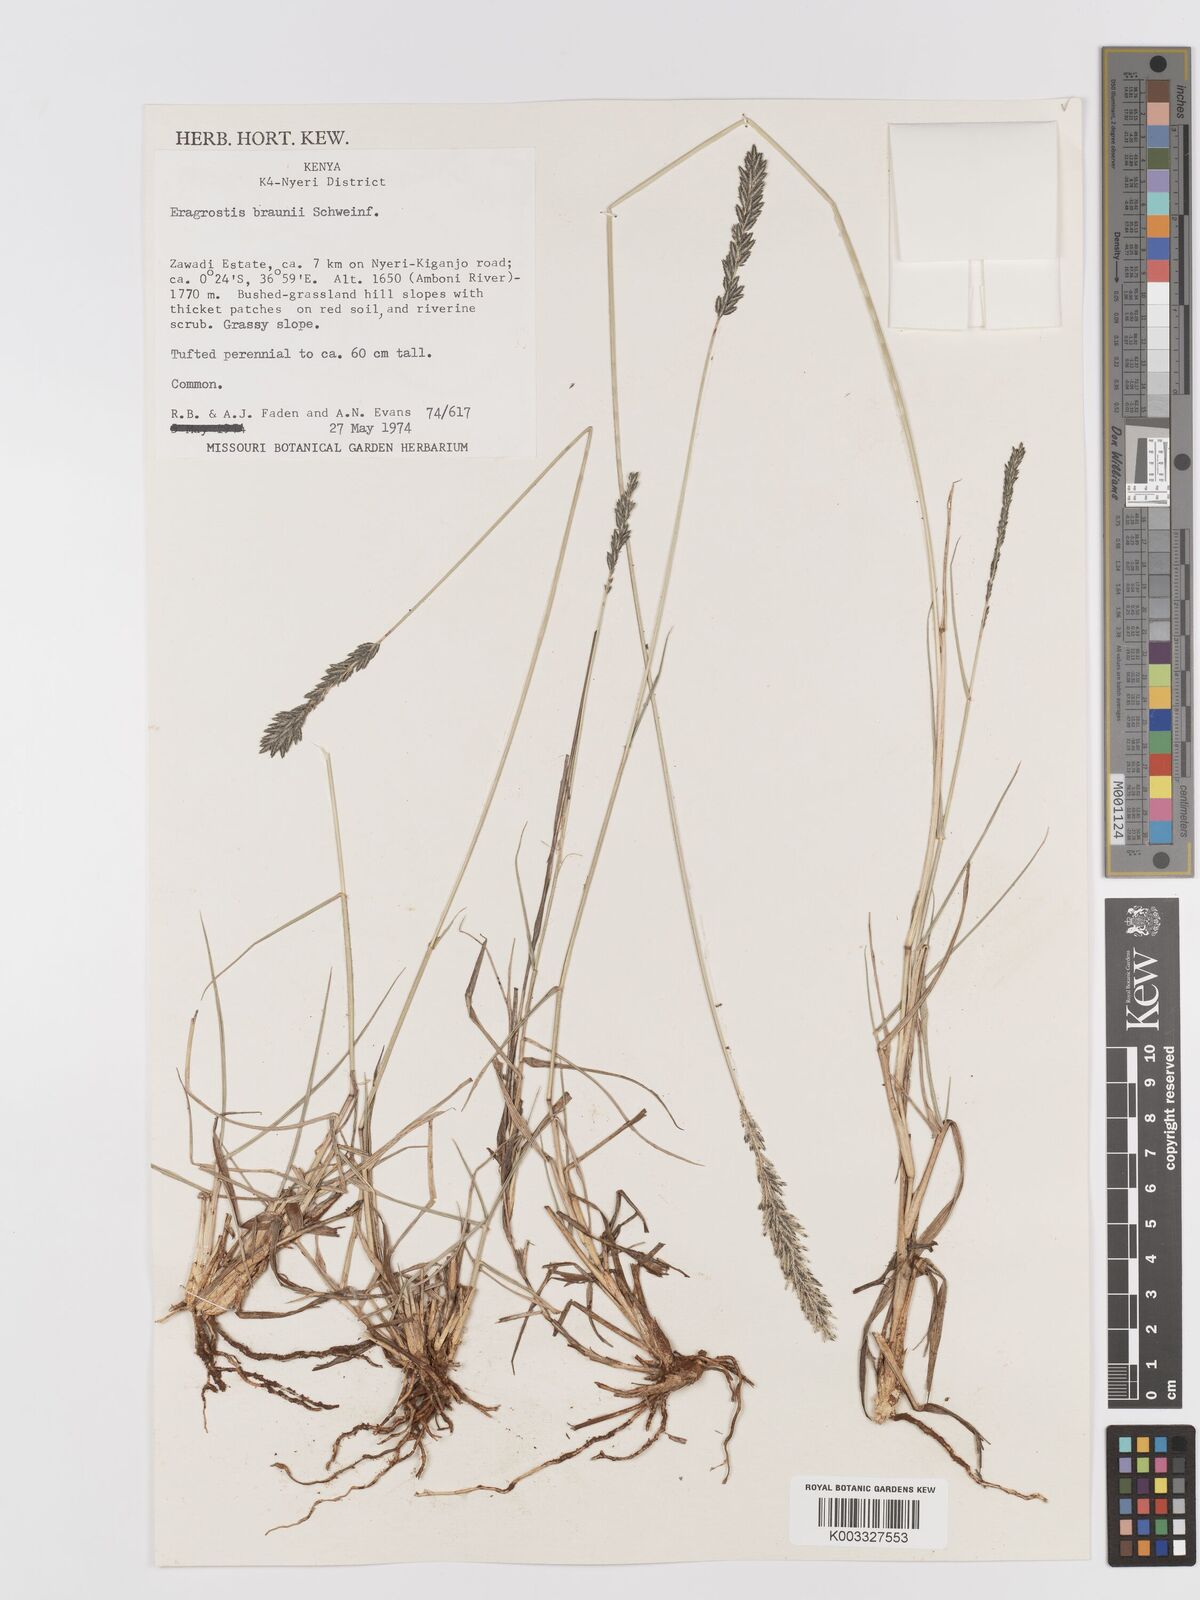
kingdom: Plantae
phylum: Tracheophyta
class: Liliopsida
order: Poales
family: Poaceae
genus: Eragrostis
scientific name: Eragrostis braunii
